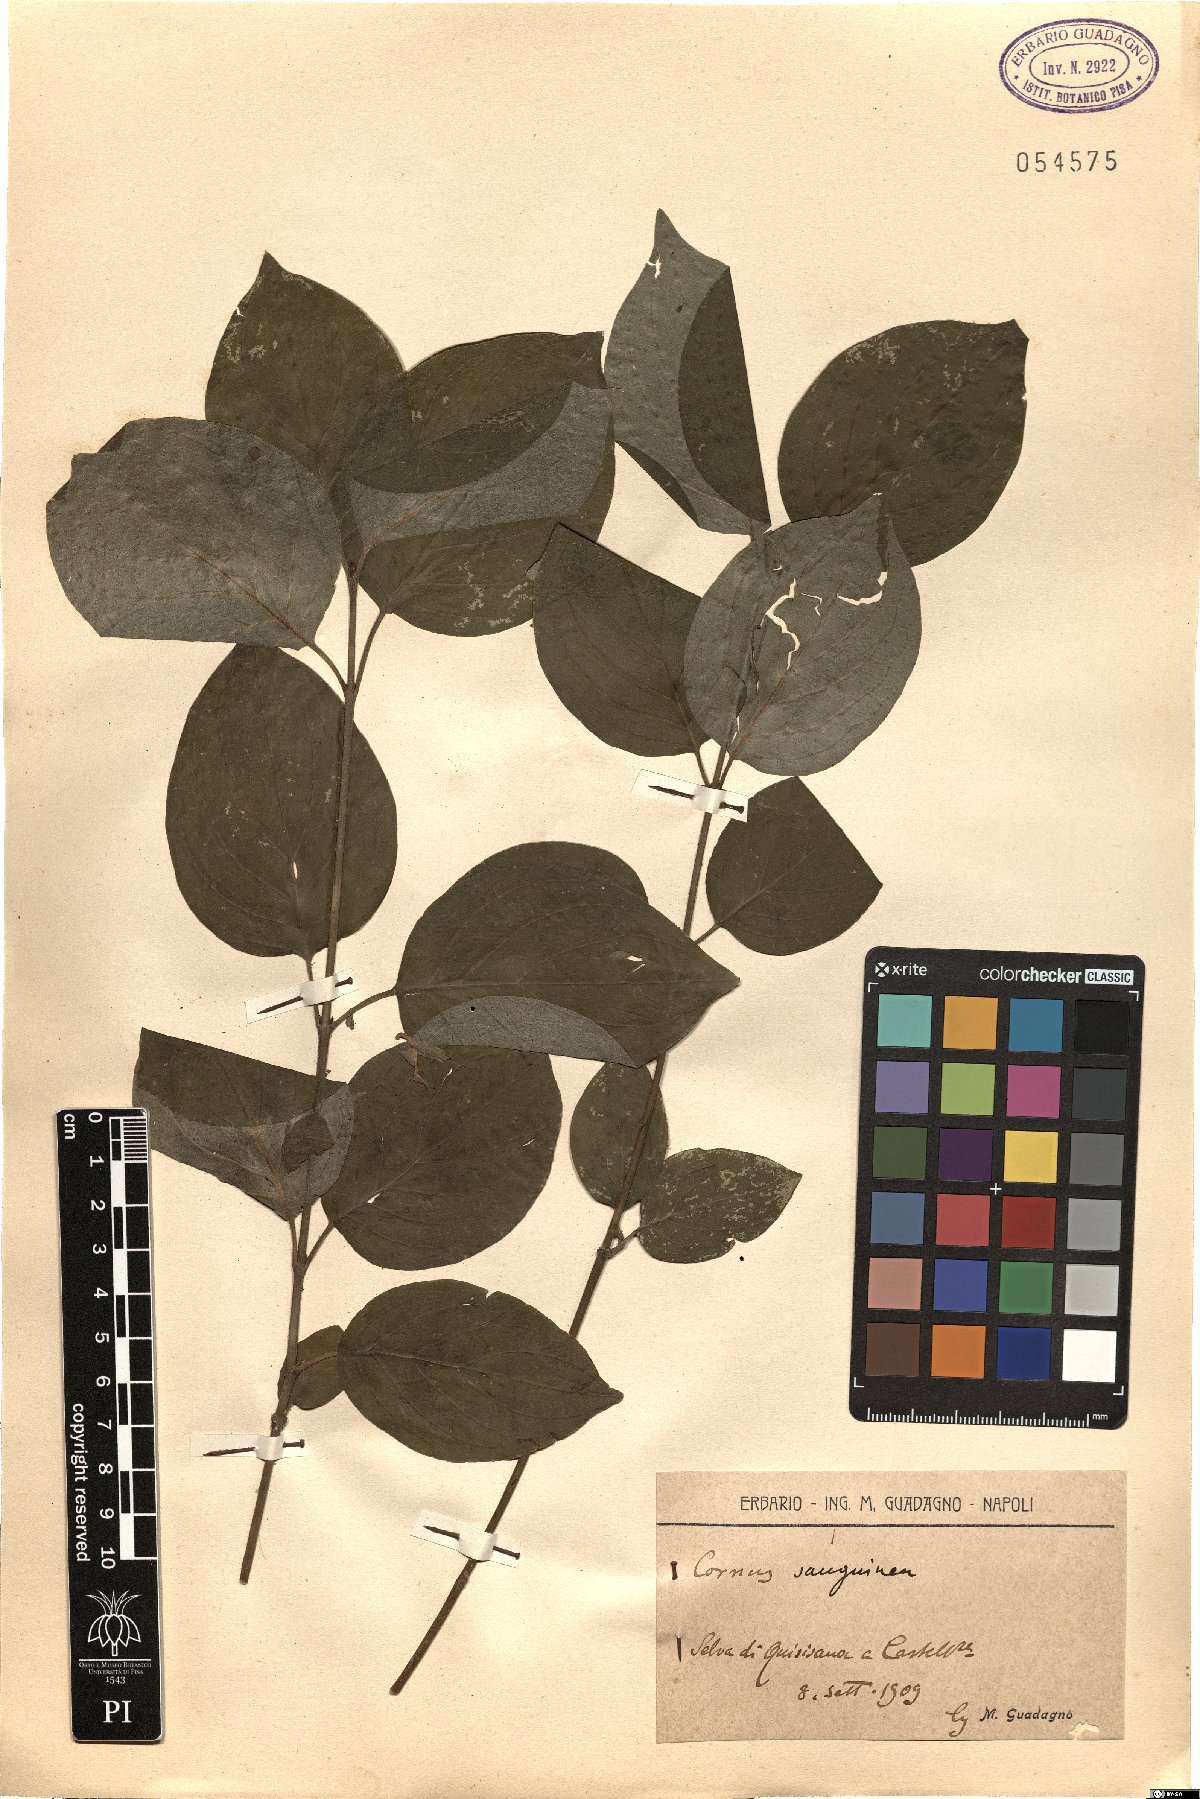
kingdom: Plantae
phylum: Tracheophyta
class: Magnoliopsida
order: Cornales
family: Cornaceae
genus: Cornus
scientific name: Cornus sanguinea
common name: Dogwood
